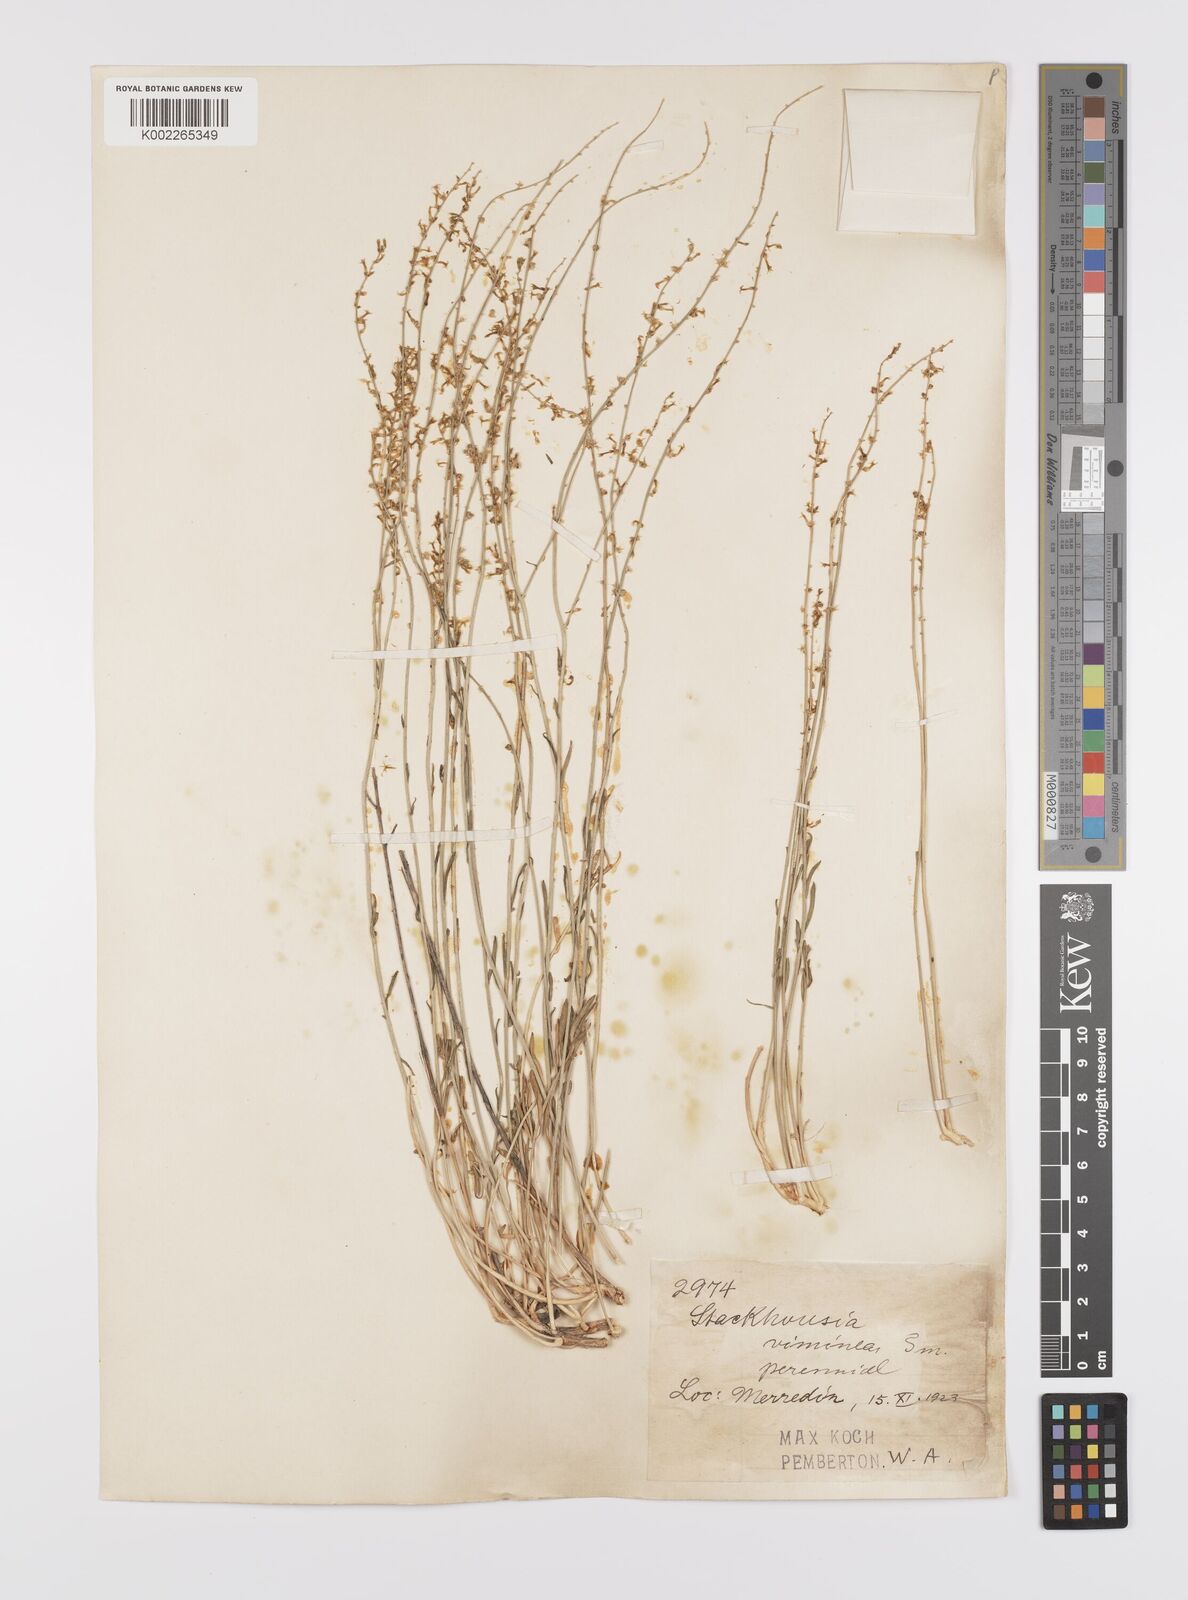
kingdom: Plantae
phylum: Tracheophyta
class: Magnoliopsida
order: Celastrales
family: Celastraceae
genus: Stackhousia
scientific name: Stackhousia muricata
